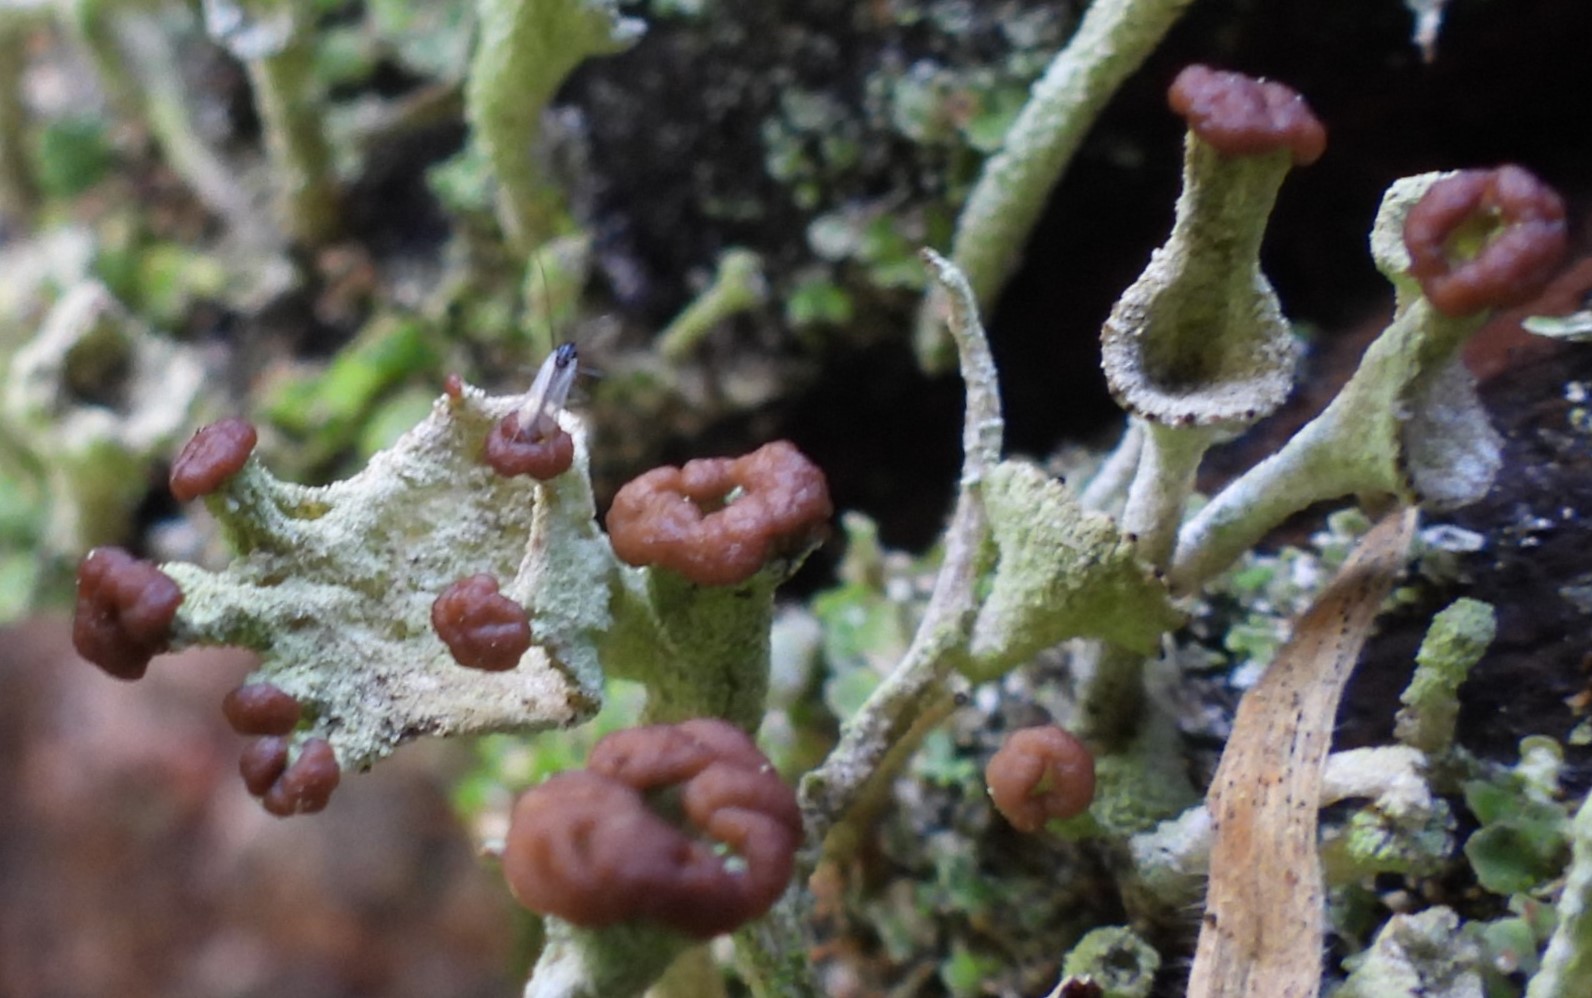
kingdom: Fungi
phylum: Ascomycota
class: Lecanoromycetes
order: Lecanorales
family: Cladoniaceae
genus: Cladonia
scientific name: Cladonia
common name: brungrøn bægerlav
